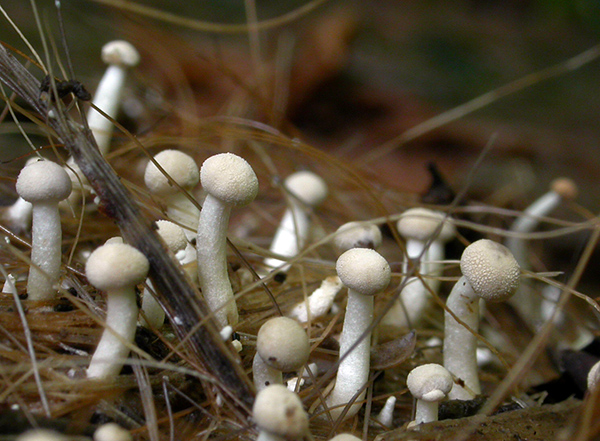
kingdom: Fungi
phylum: Ascomycota
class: Eurotiomycetes
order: Onygenales
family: Onygenaceae
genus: Onygena
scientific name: Onygena corvina
